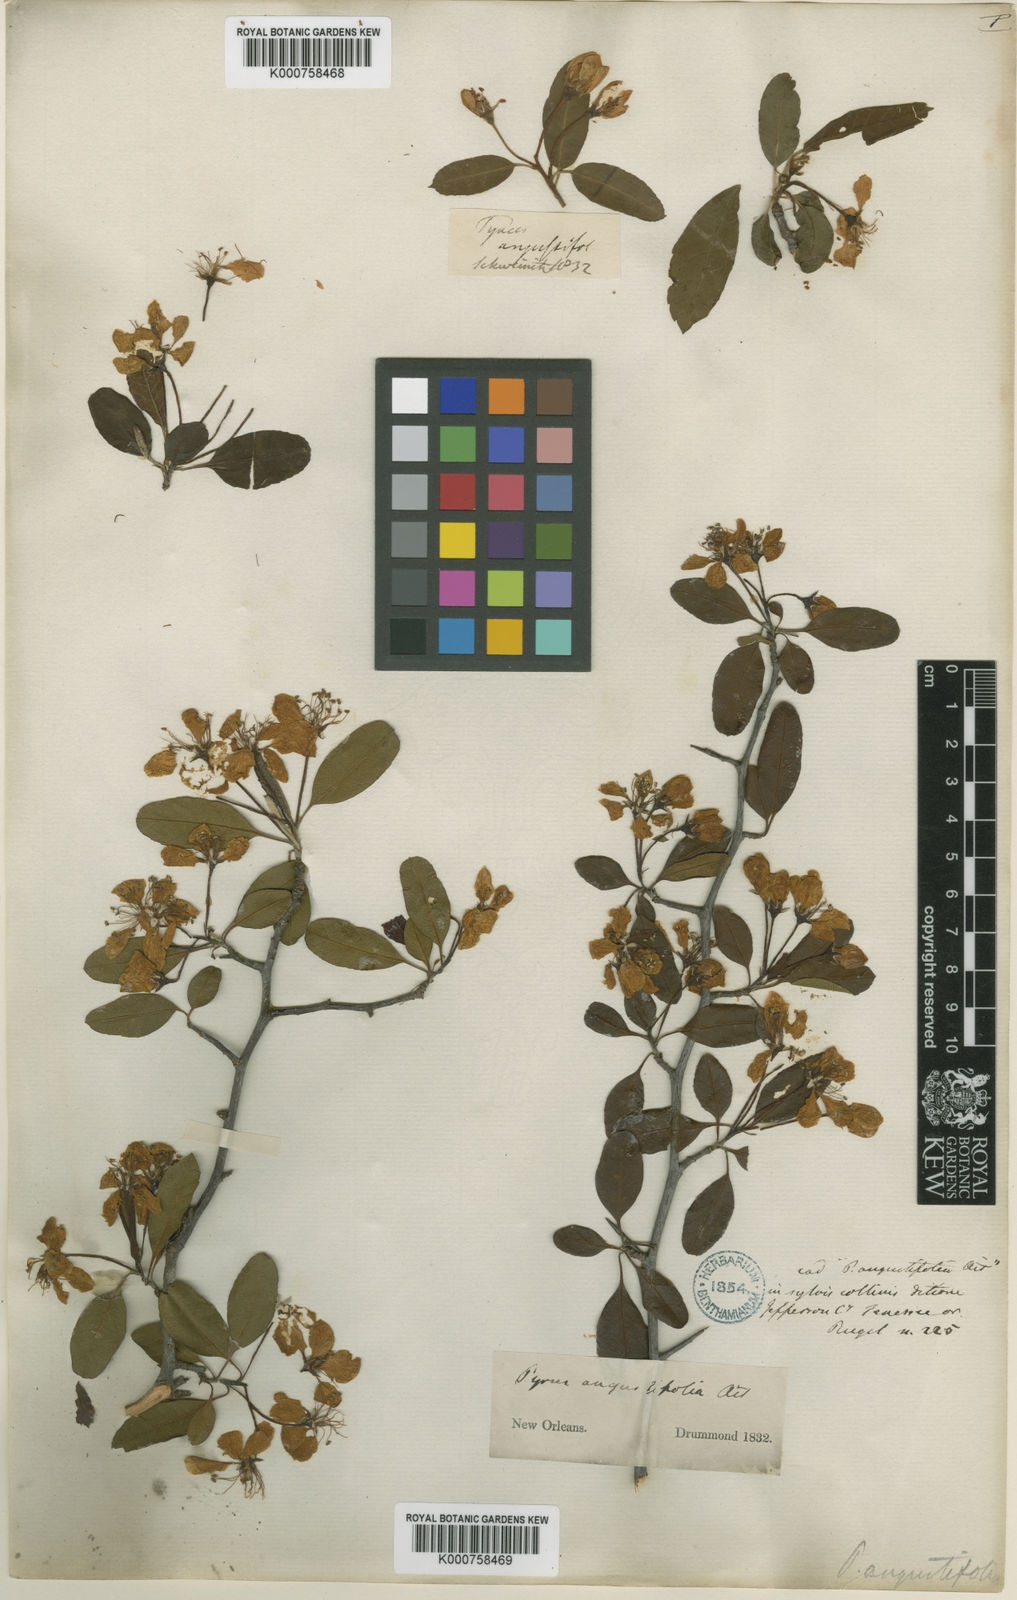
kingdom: Plantae
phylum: Tracheophyta
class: Magnoliopsida
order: Rosales
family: Rosaceae
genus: Malus
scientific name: Malus angustifolia
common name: Southern crab apple
